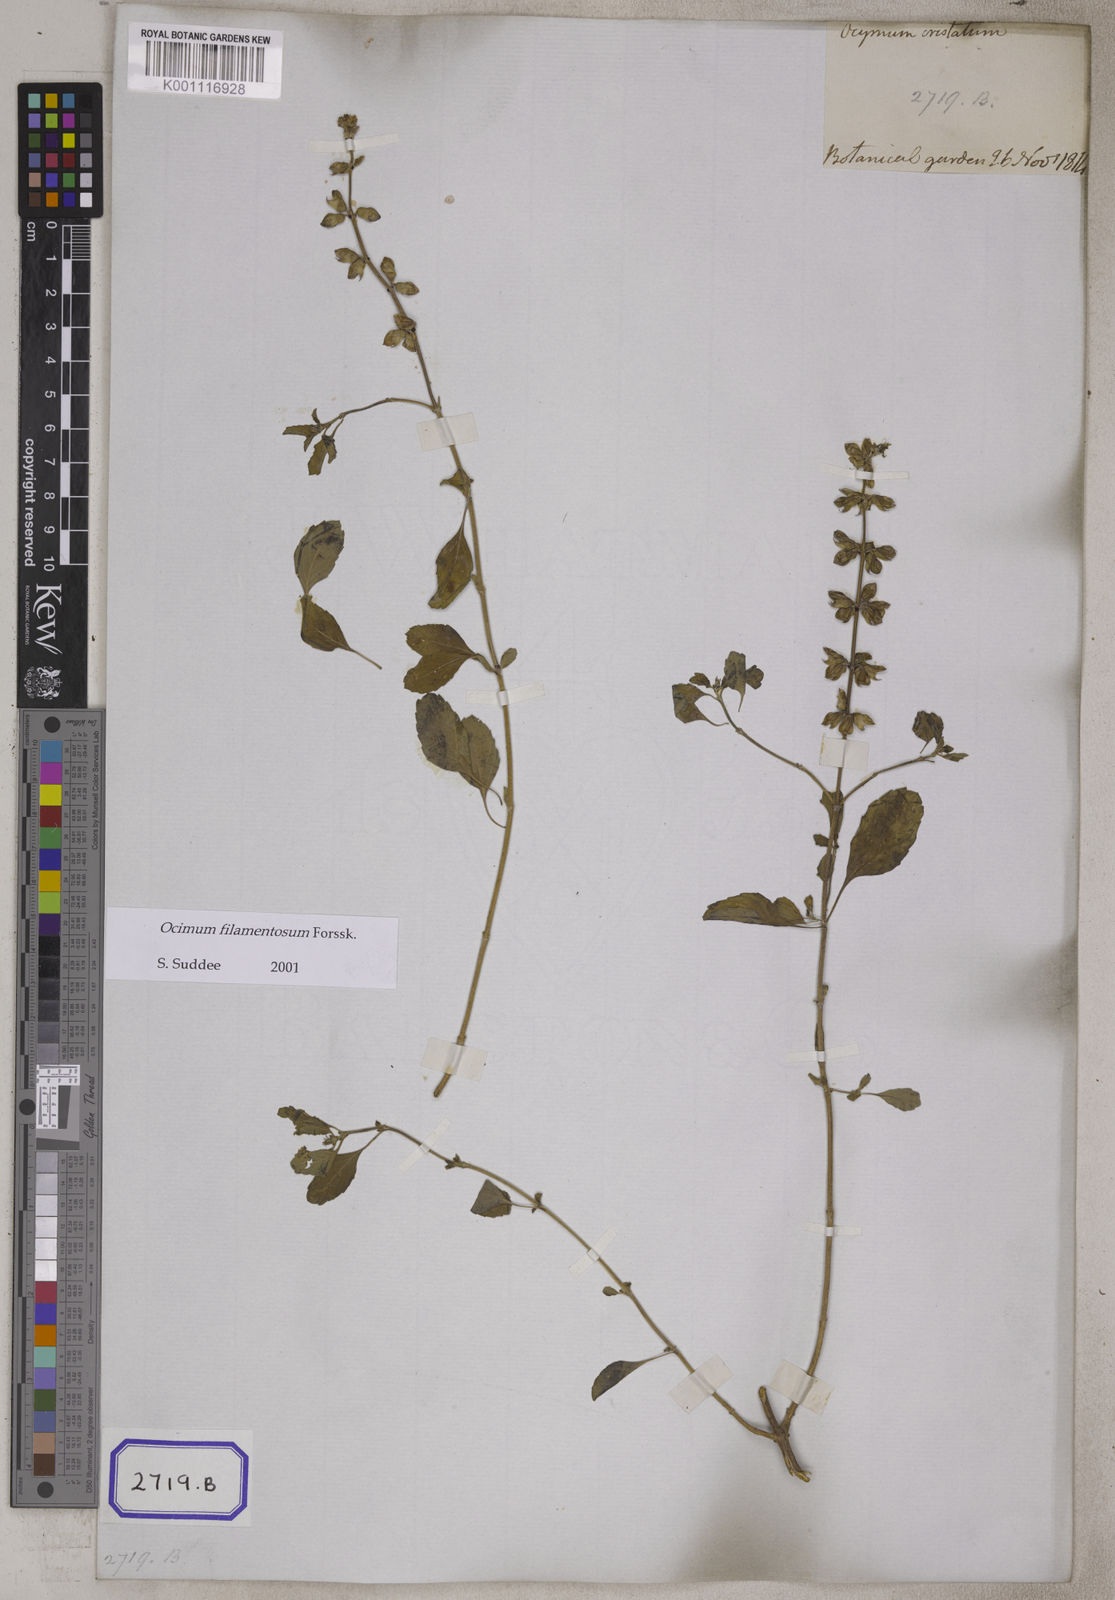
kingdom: Plantae
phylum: Tracheophyta
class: Magnoliopsida
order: Lamiales
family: Lamiaceae
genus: Ocimum
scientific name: Ocimum filamentosum
